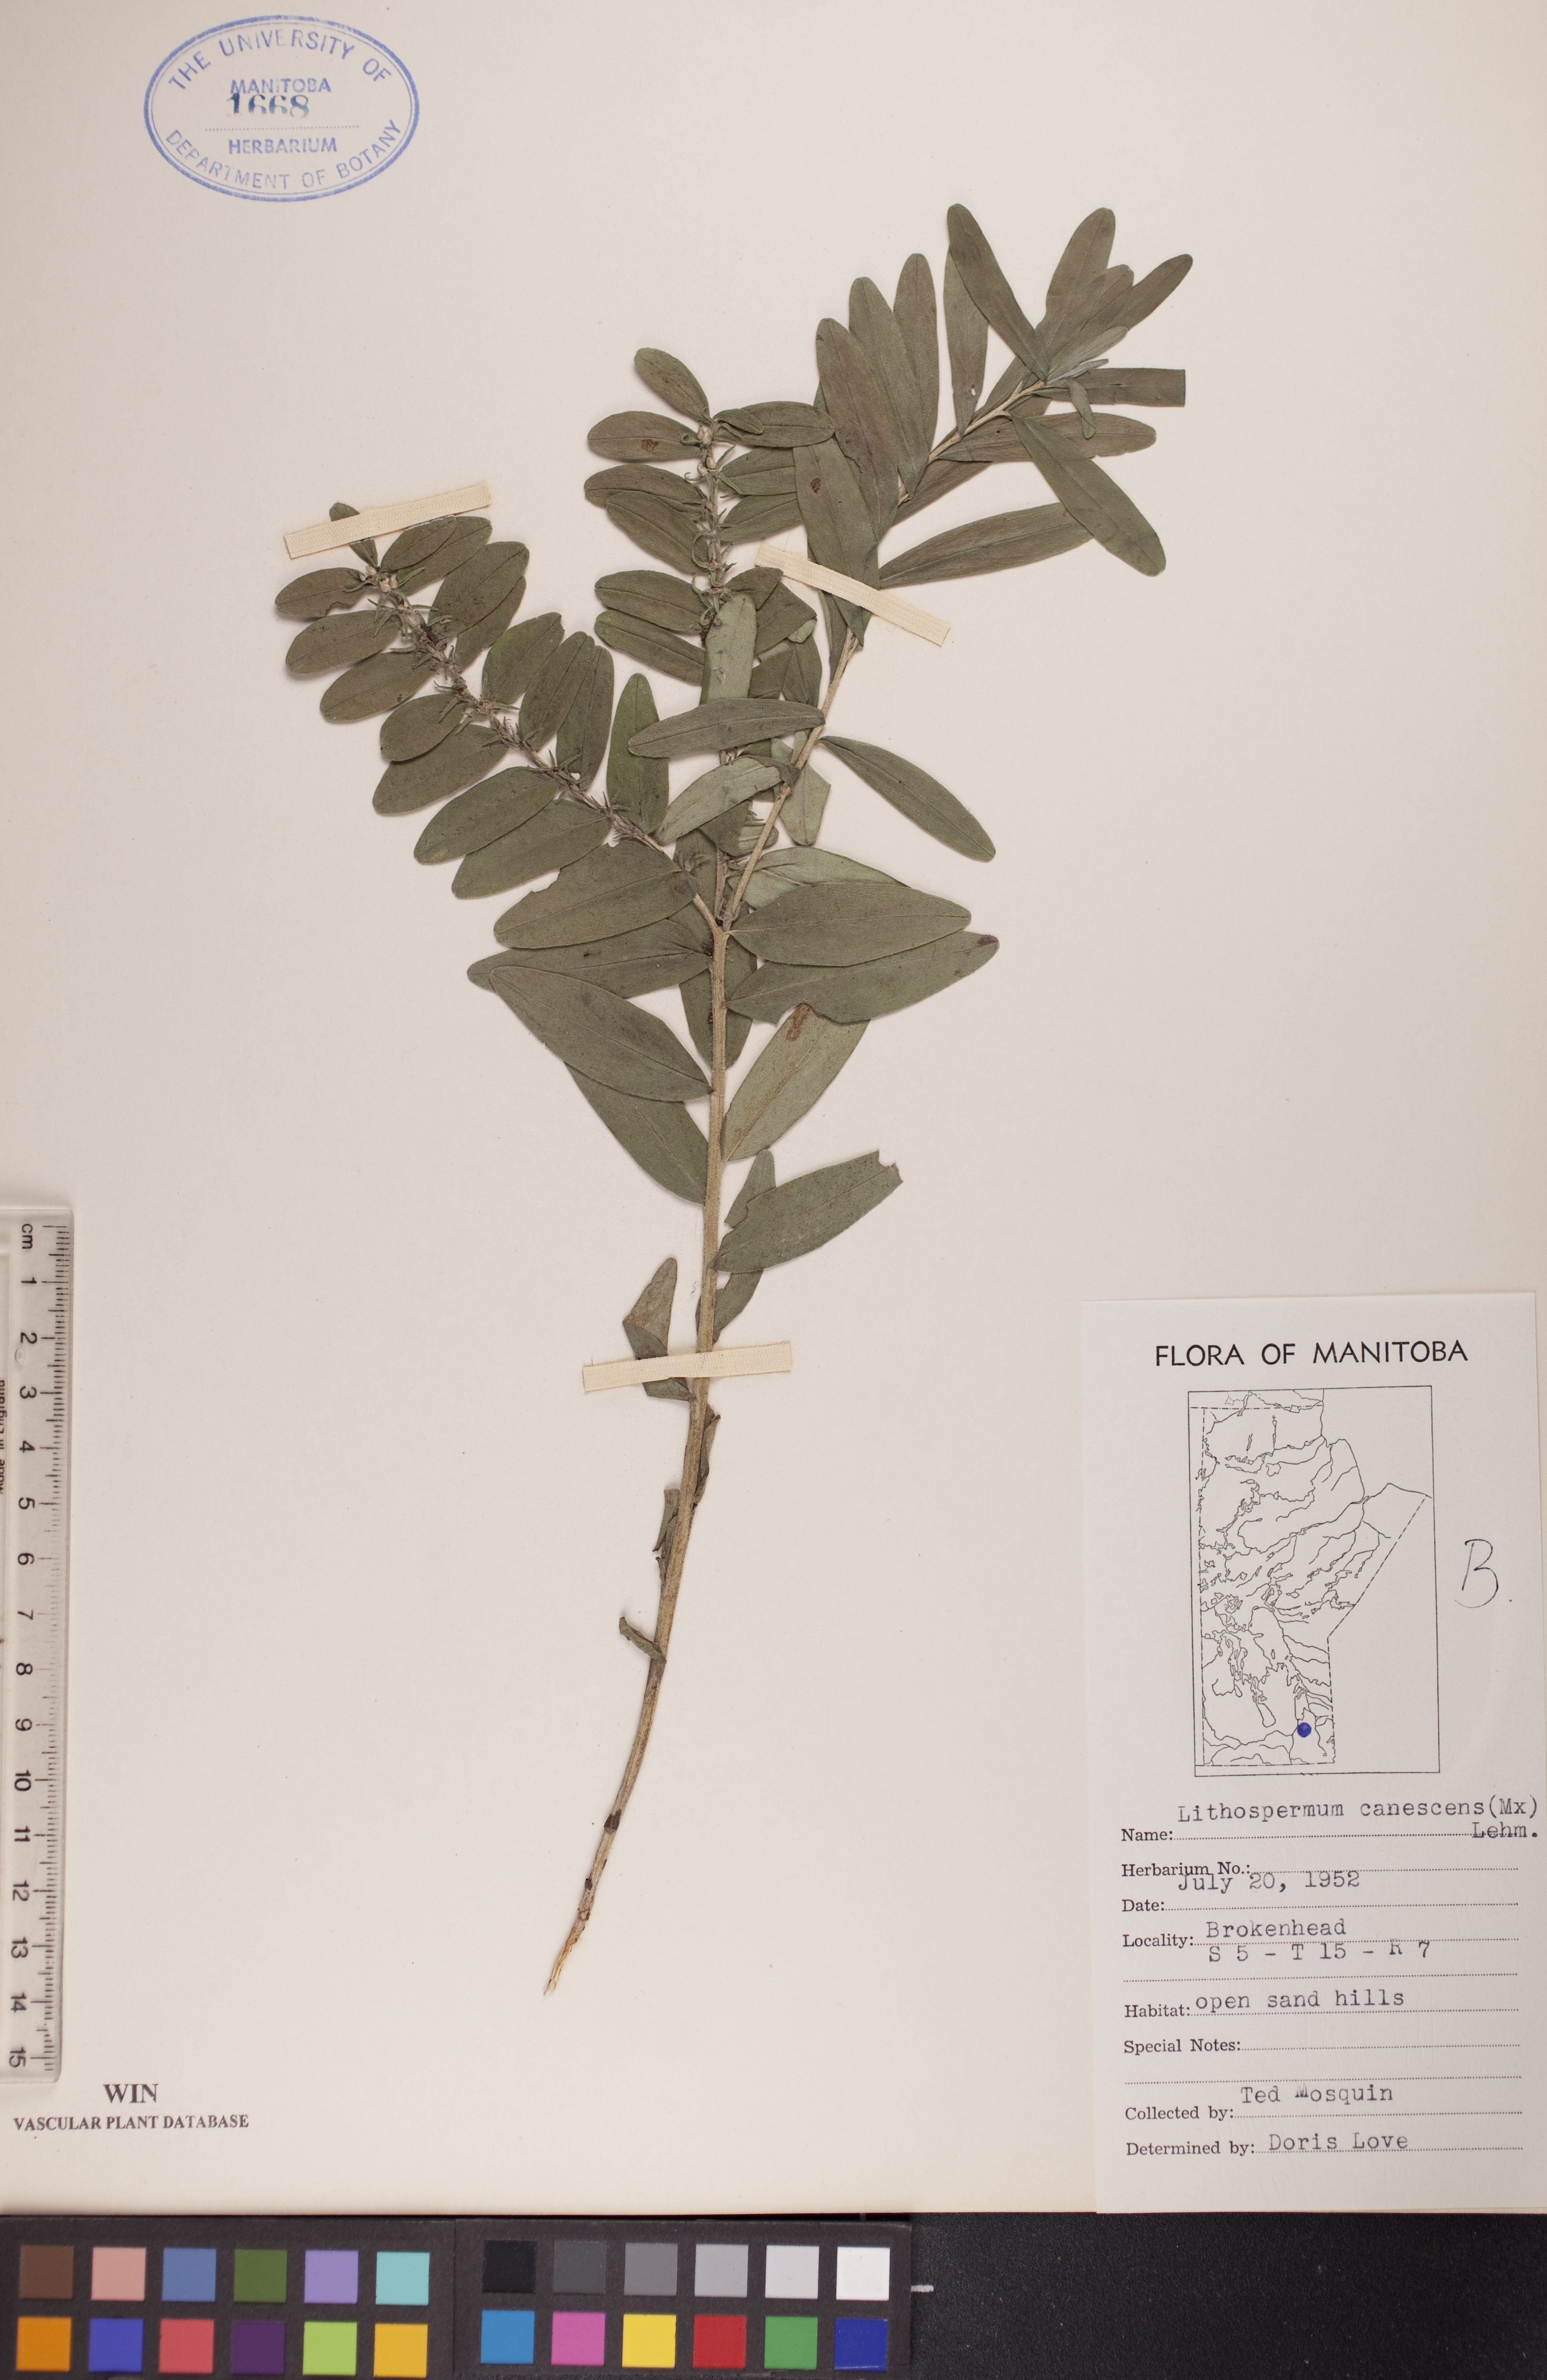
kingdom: Plantae
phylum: Tracheophyta
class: Magnoliopsida
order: Boraginales
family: Boraginaceae
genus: Lithospermum
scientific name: Lithospermum canescens
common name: Hoary puccoon
